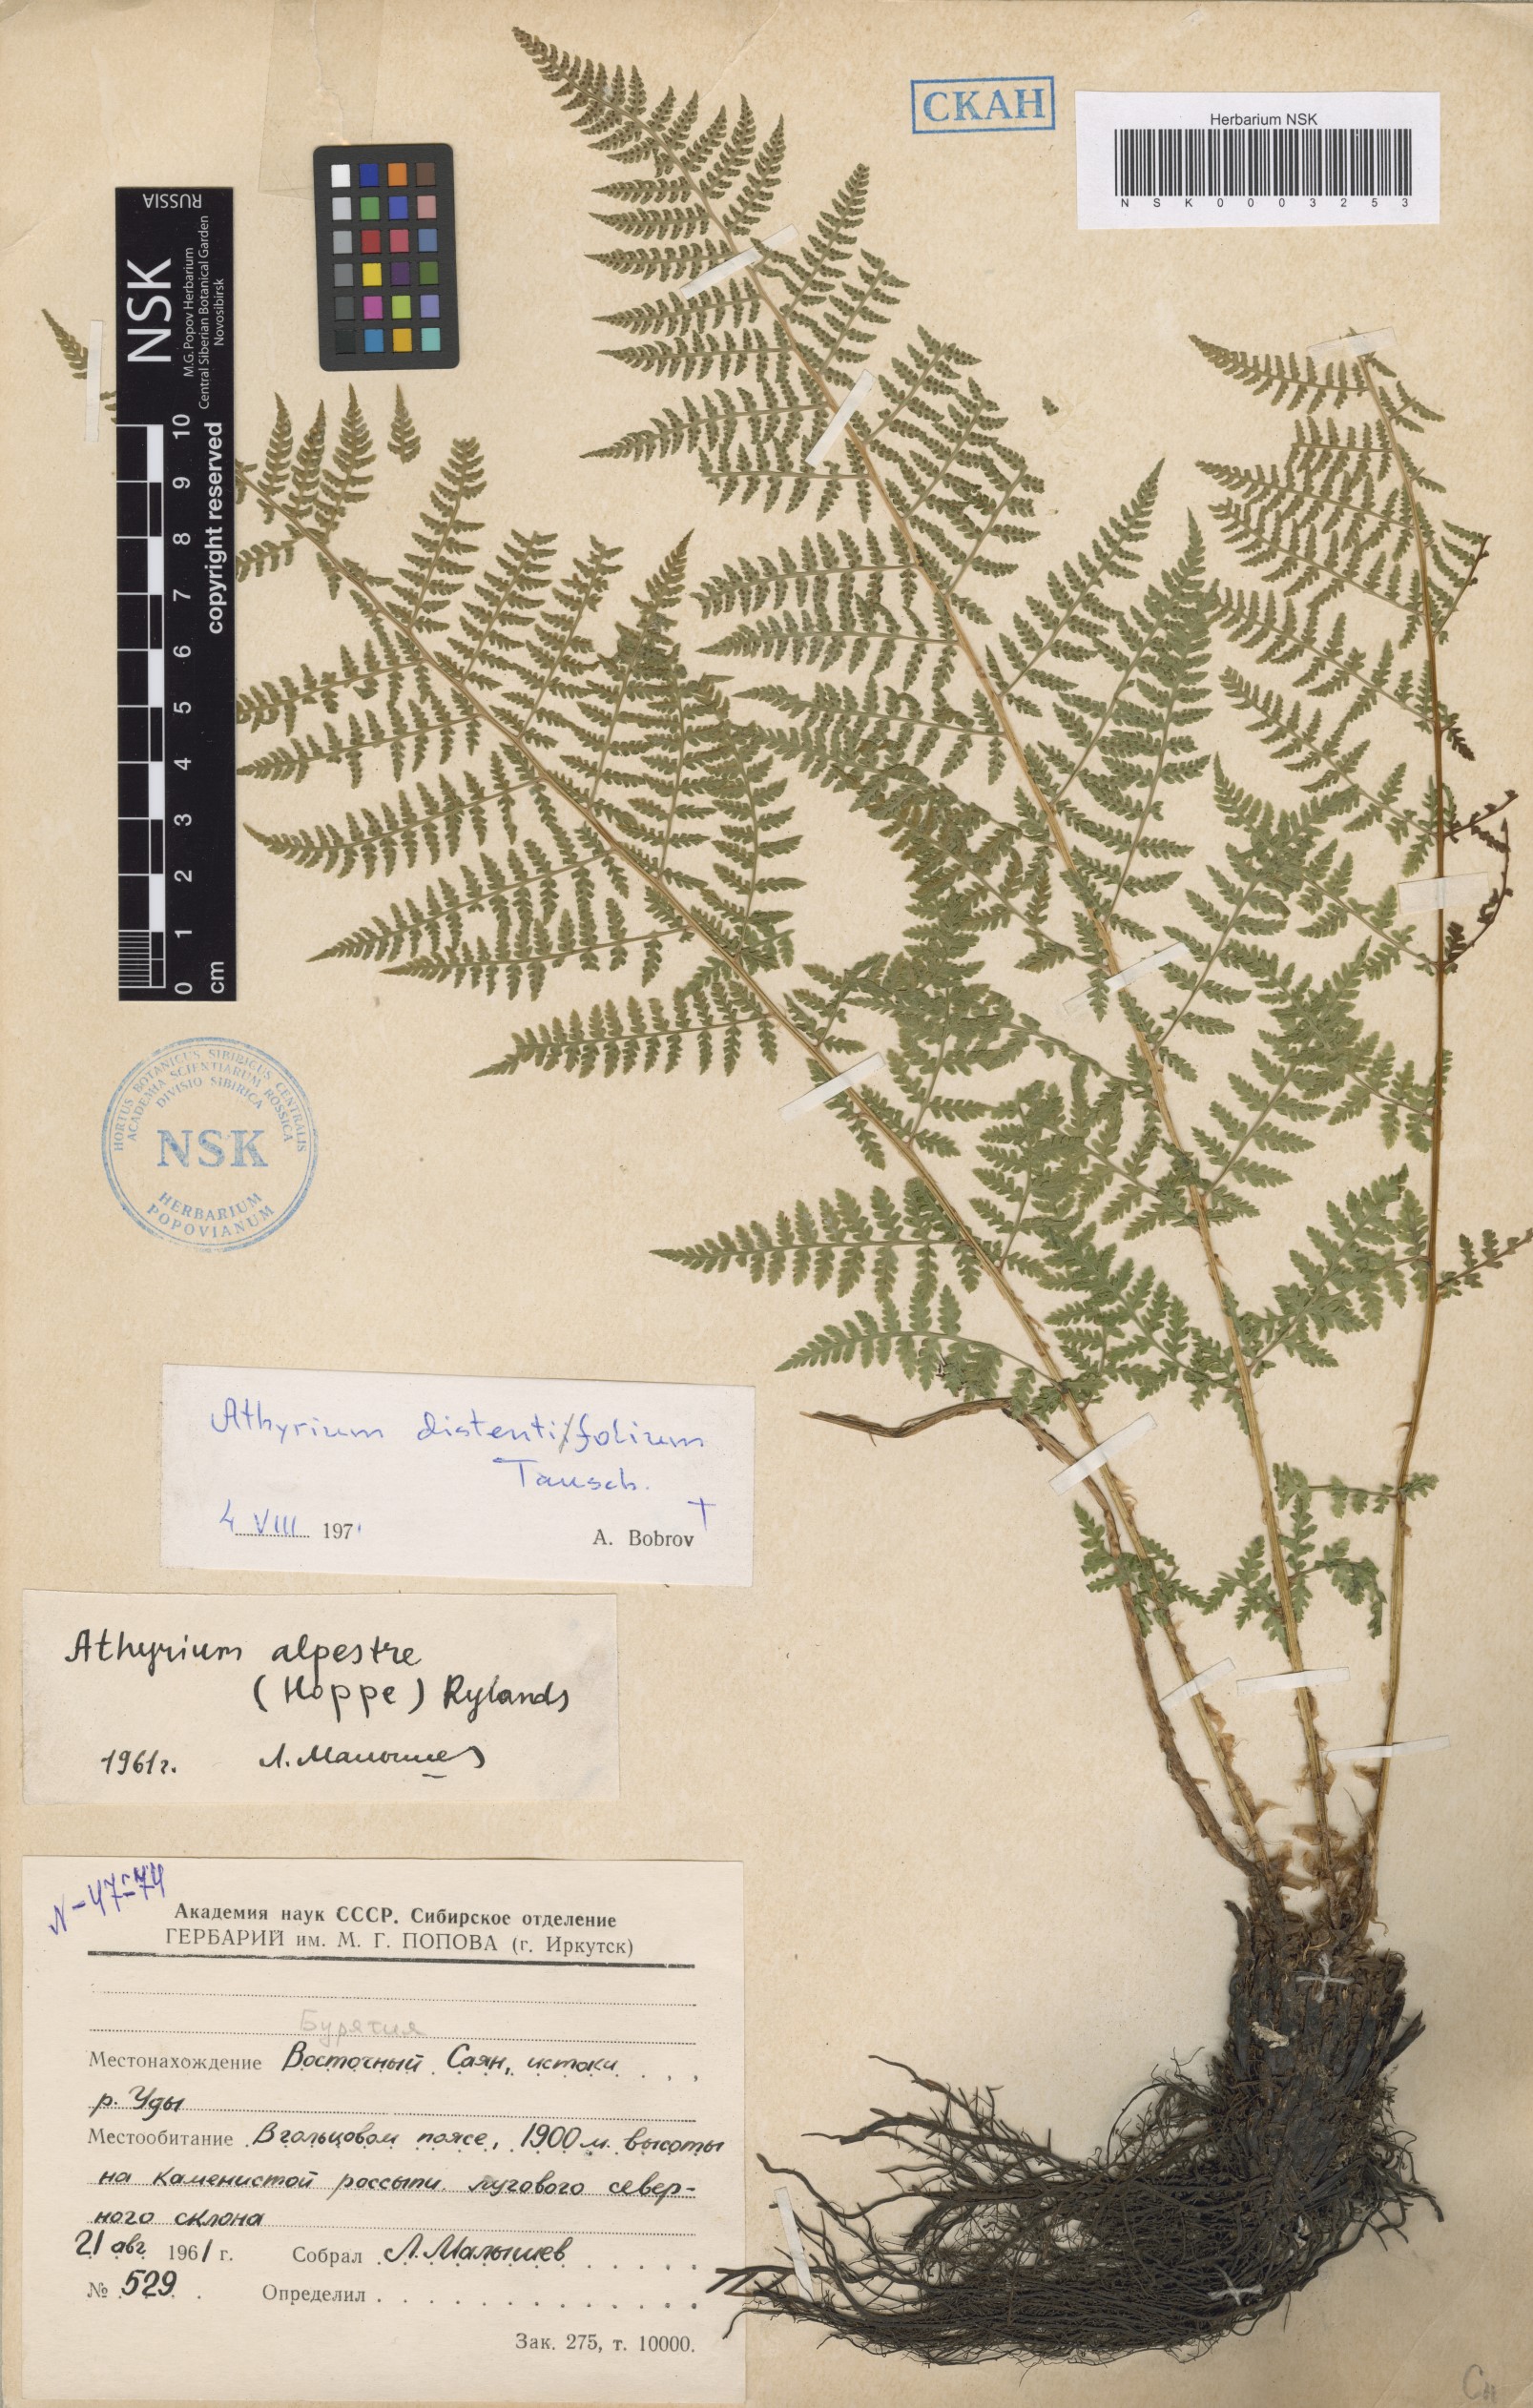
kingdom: Plantae
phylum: Tracheophyta
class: Polypodiopsida
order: Polypodiales
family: Athyriaceae
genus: Pseudathyrium
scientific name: Pseudathyrium alpestre
